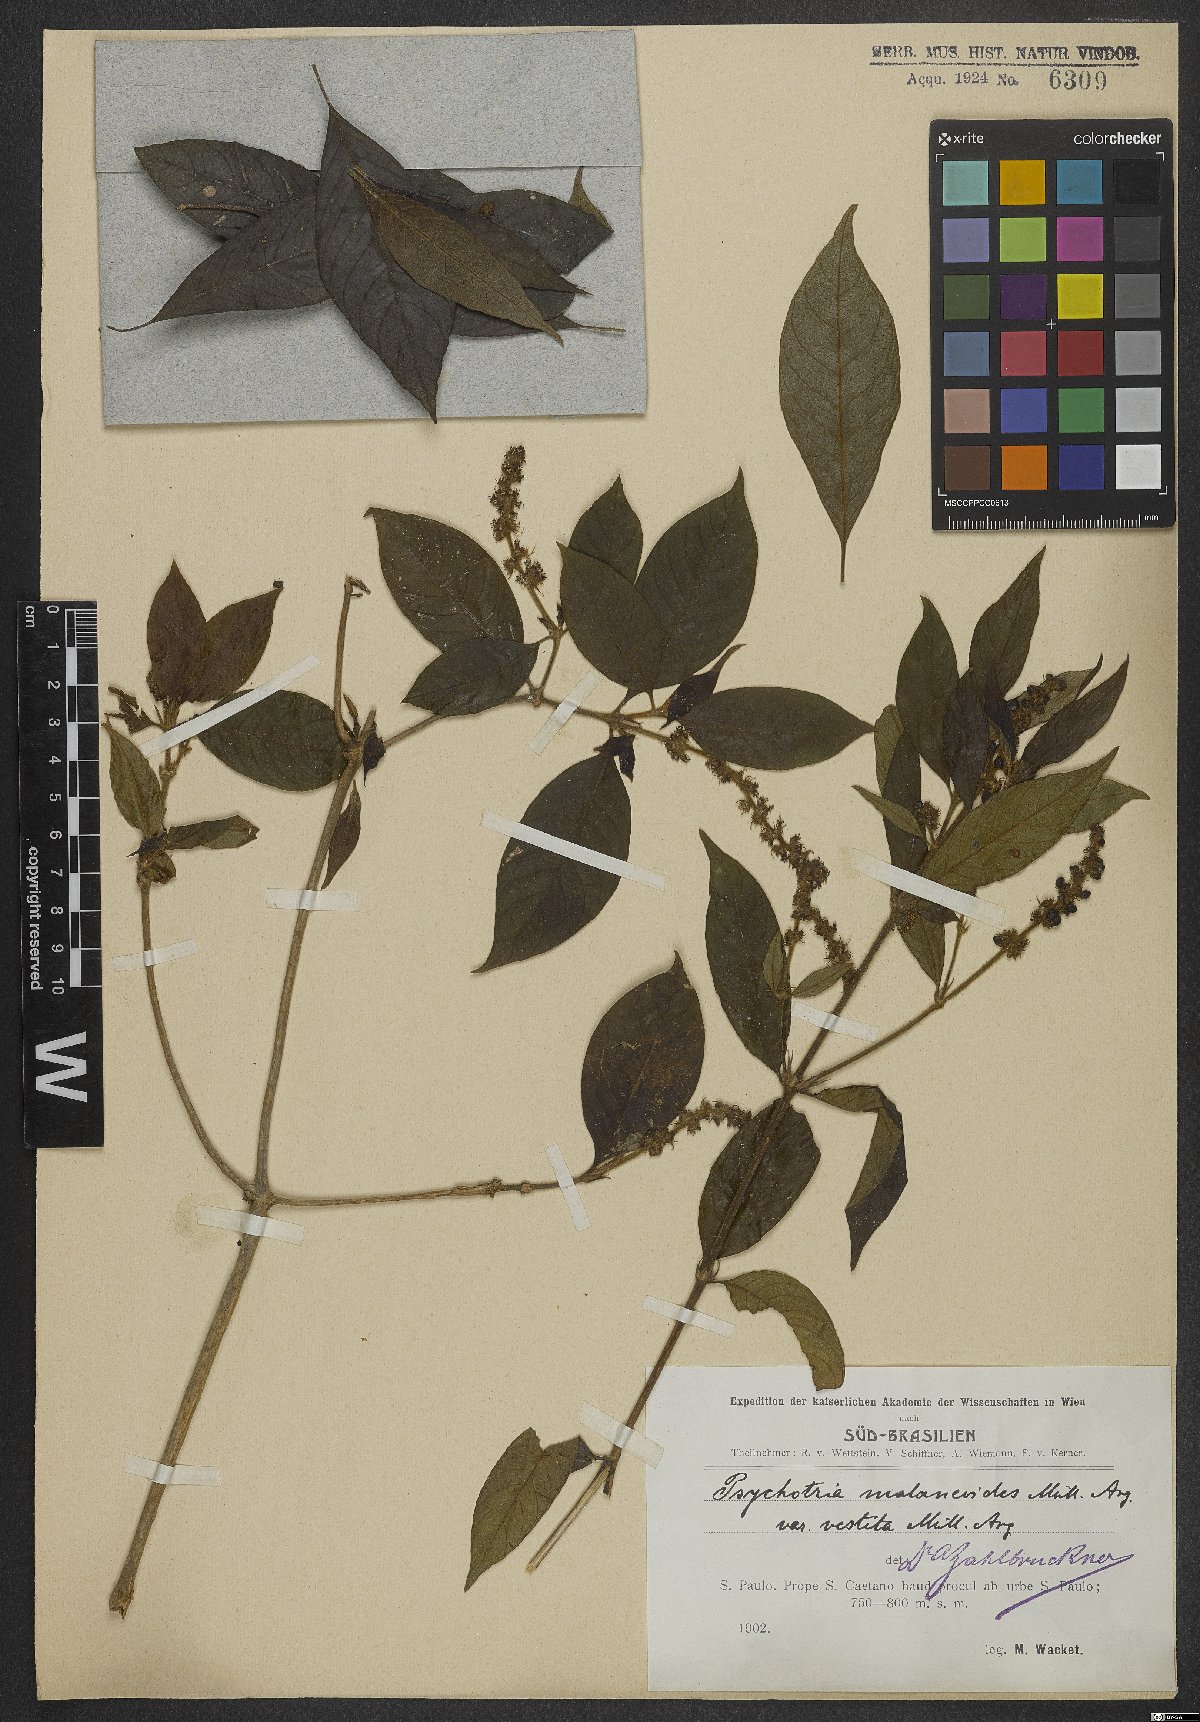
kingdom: Plantae
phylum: Tracheophyta
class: Magnoliopsida
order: Gentianales
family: Rubiaceae
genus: Palicourea
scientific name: Palicourea malaneoides
